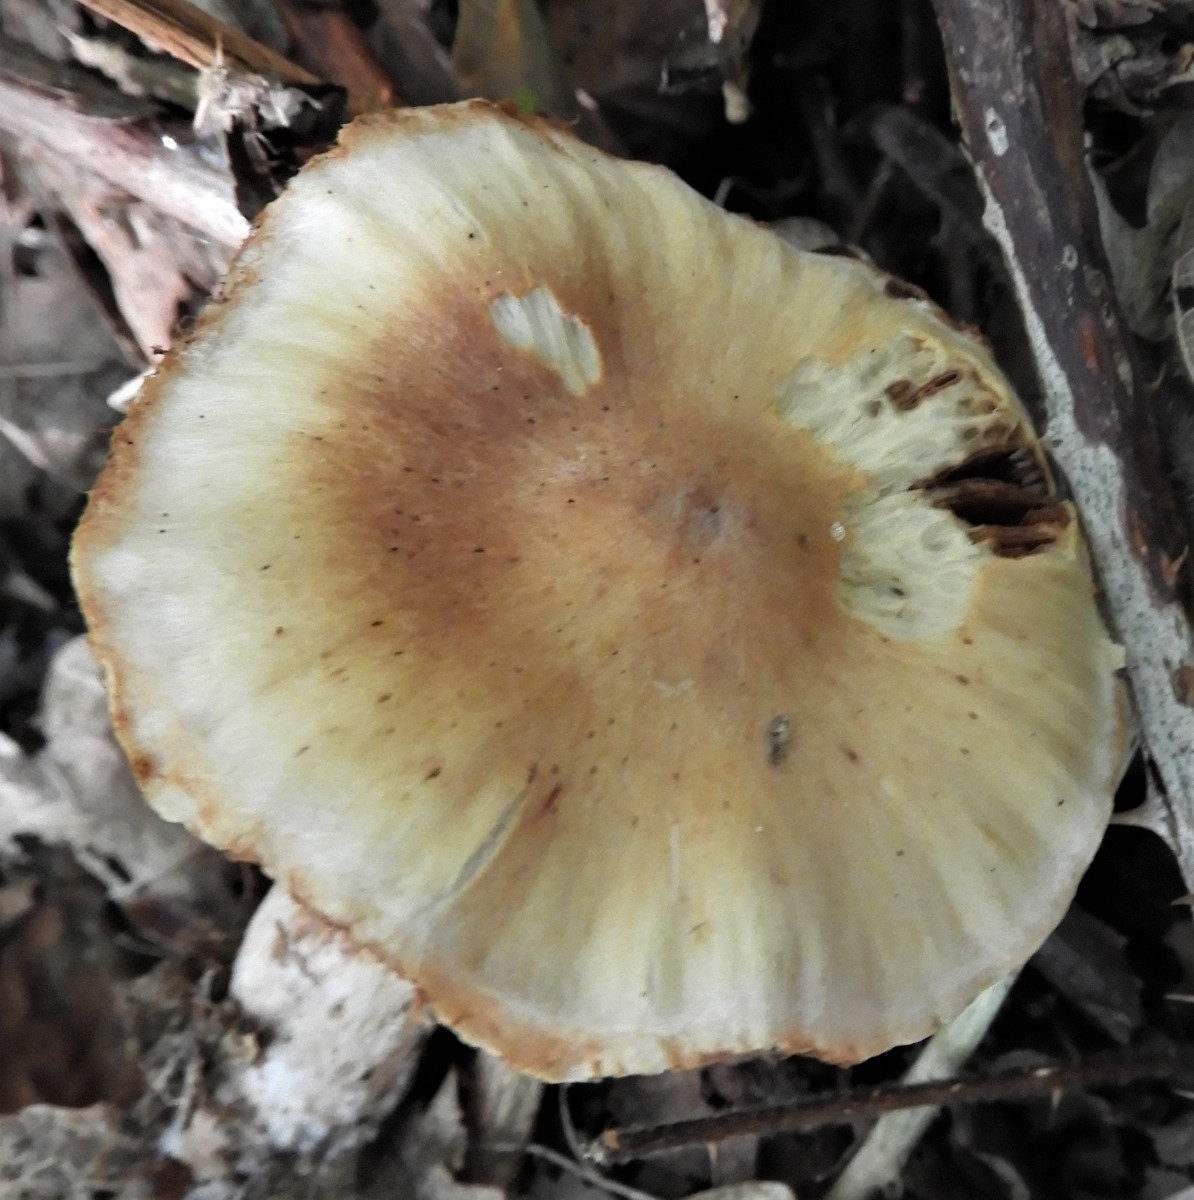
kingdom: Fungi
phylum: Basidiomycota
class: Agaricomycetes
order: Agaricales
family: Cortinariaceae
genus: Cortinarius
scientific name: Cortinarius
